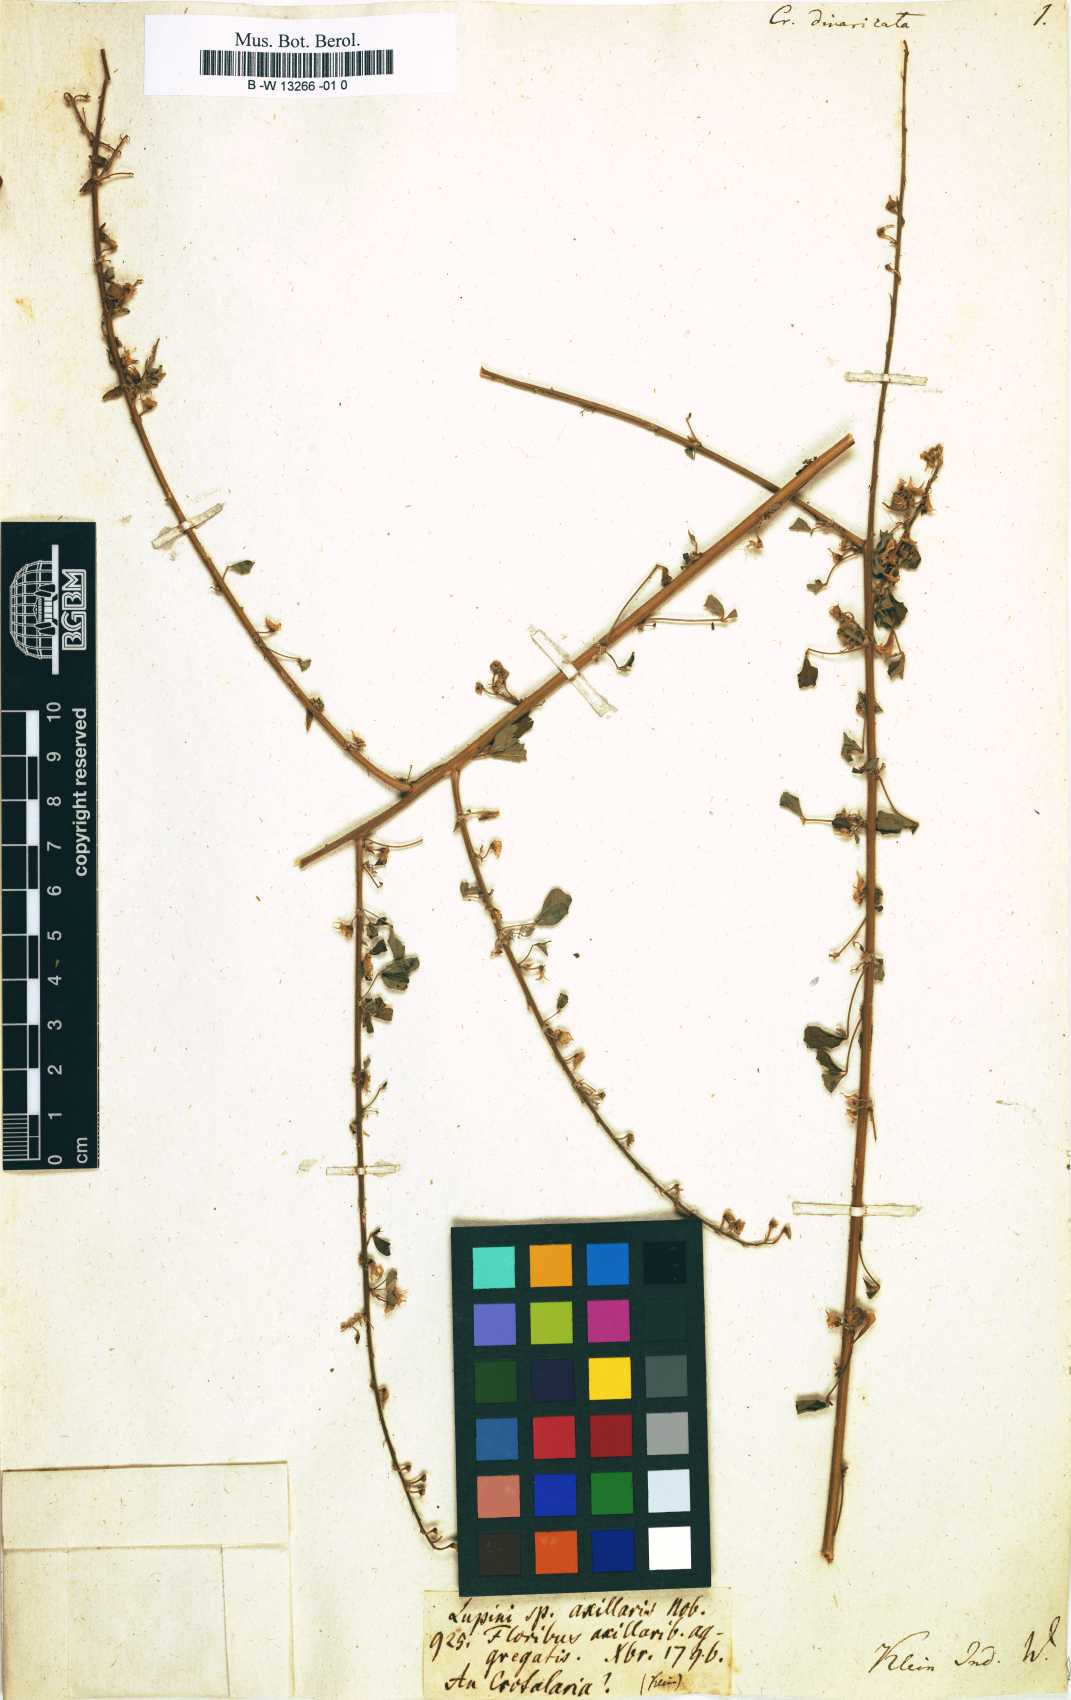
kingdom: Plantae
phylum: Tracheophyta
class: Magnoliopsida
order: Fabales
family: Fabaceae
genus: Crotalaria
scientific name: Crotalaria grandiflora
